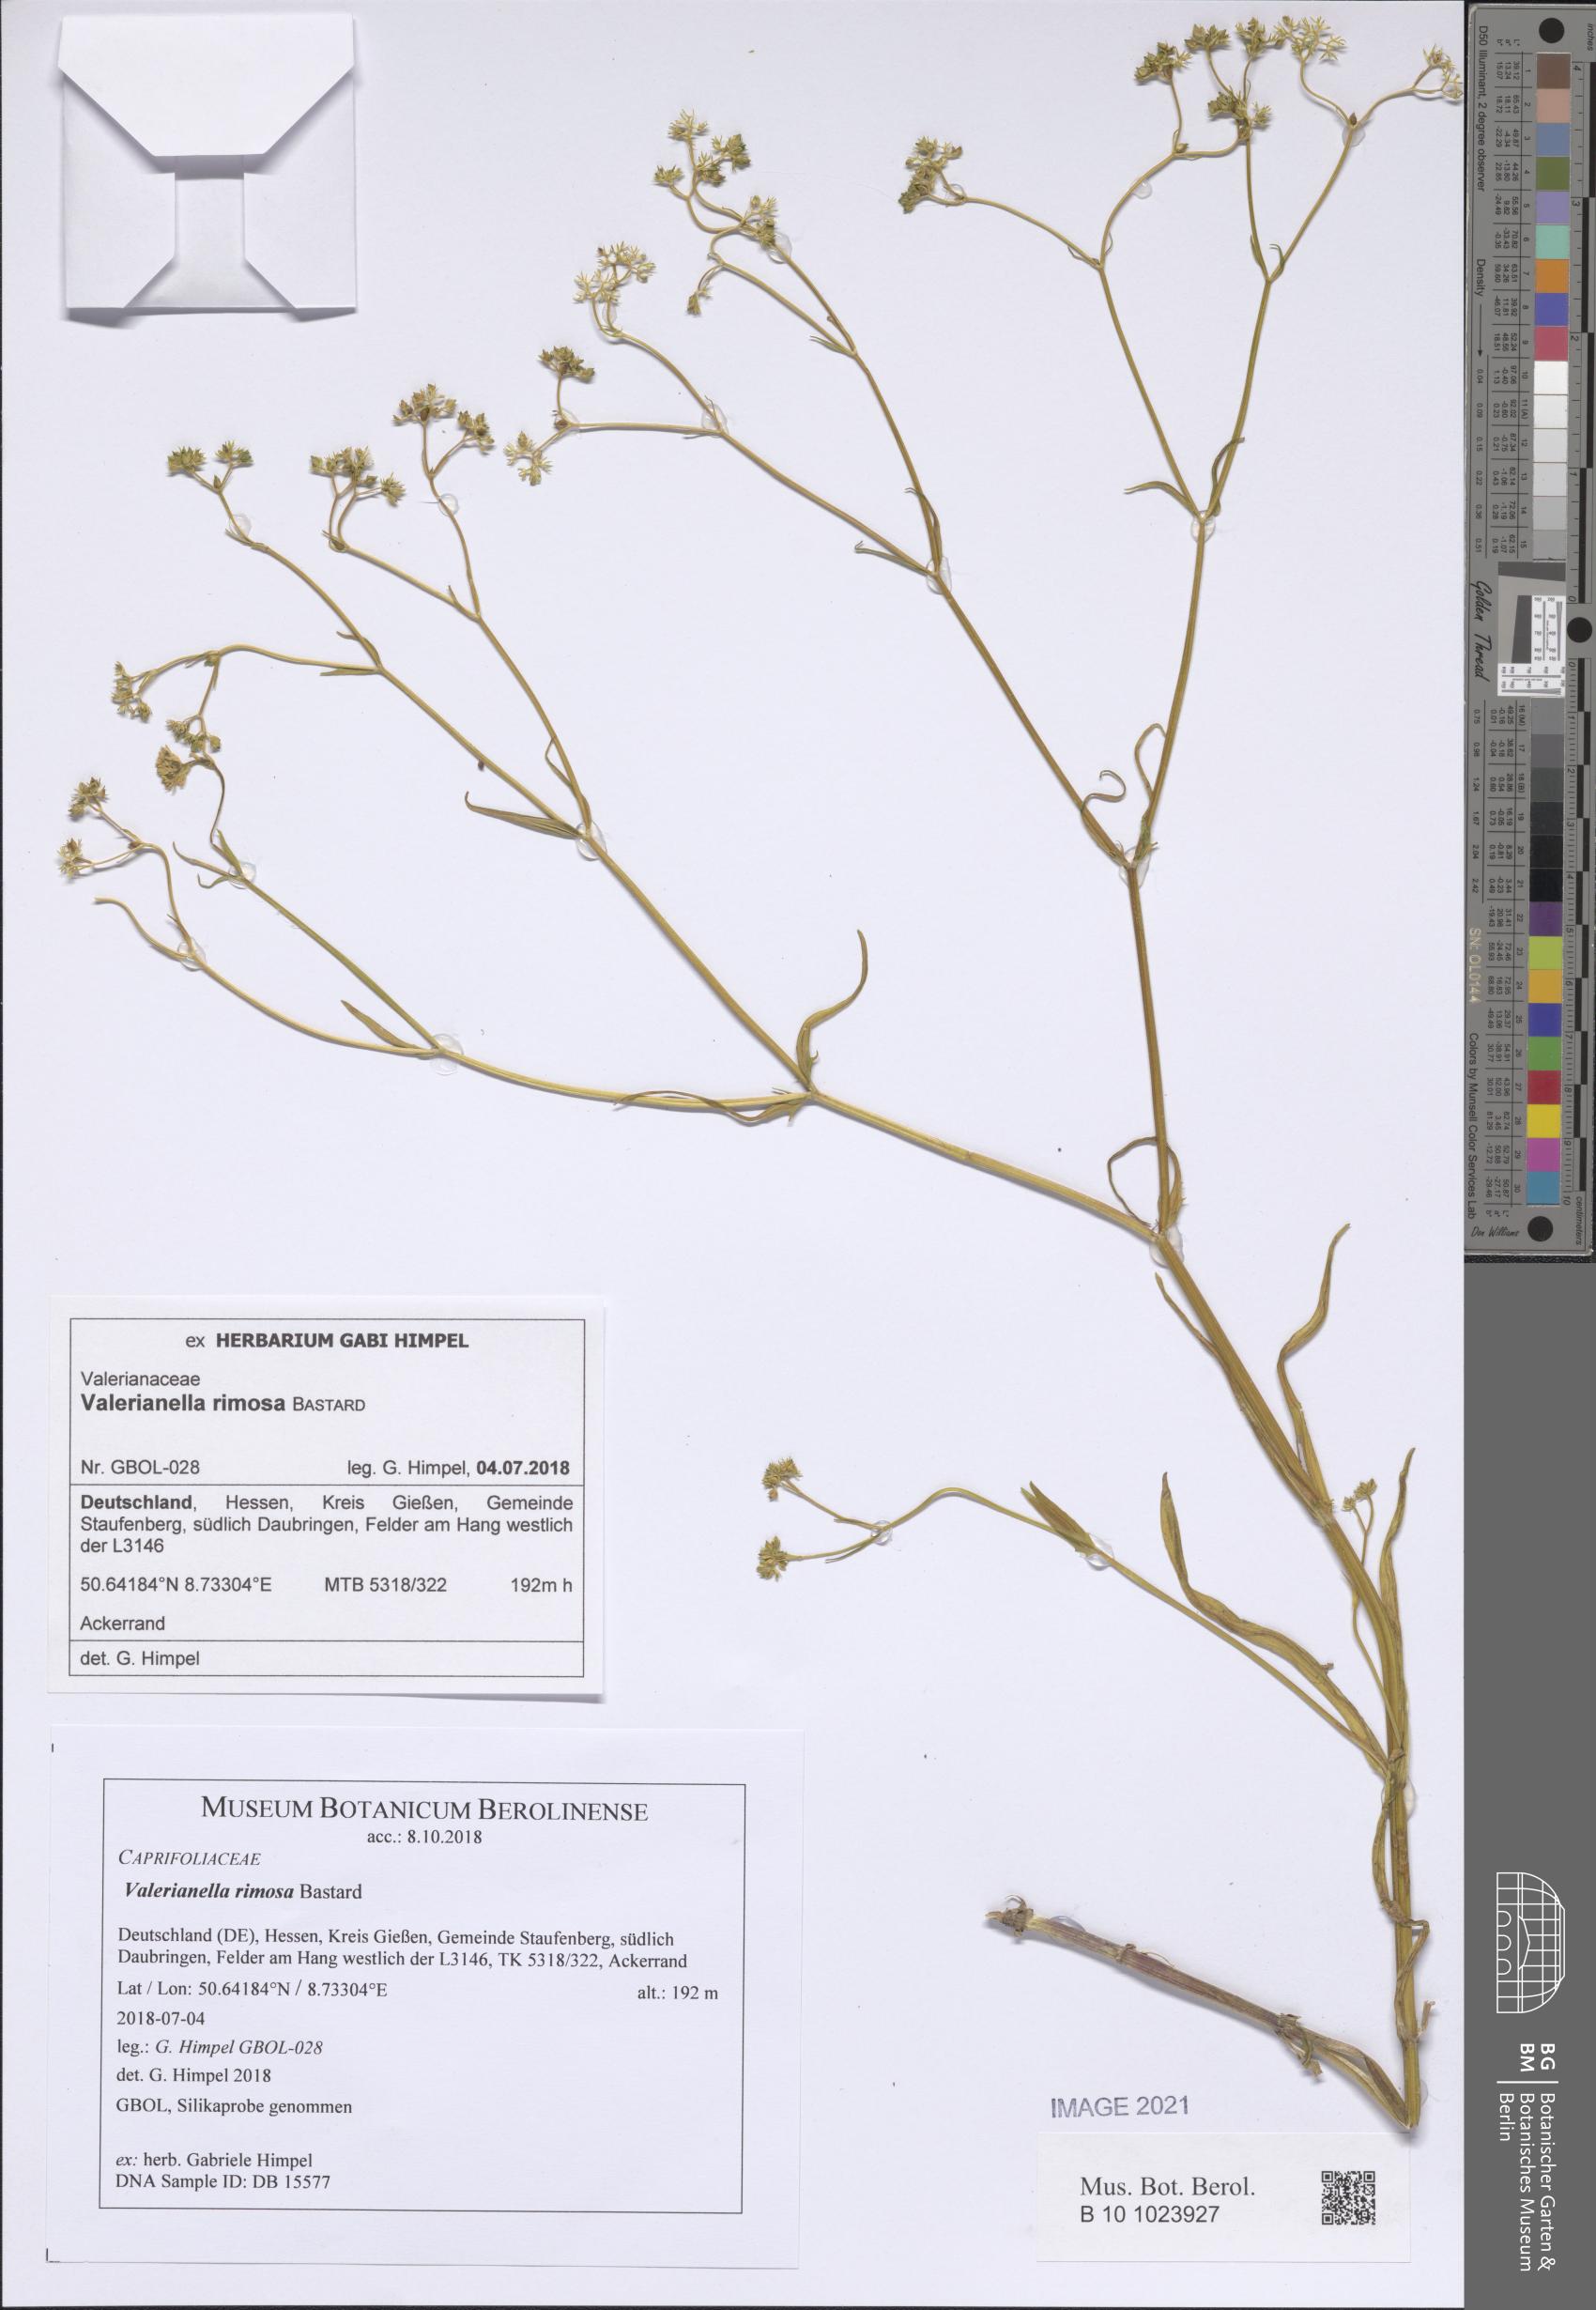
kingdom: Plantae
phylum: Tracheophyta
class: Magnoliopsida
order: Dipsacales
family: Caprifoliaceae
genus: Valerianella
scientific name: Valerianella rimosa
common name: Broad-fruited cornsalad
